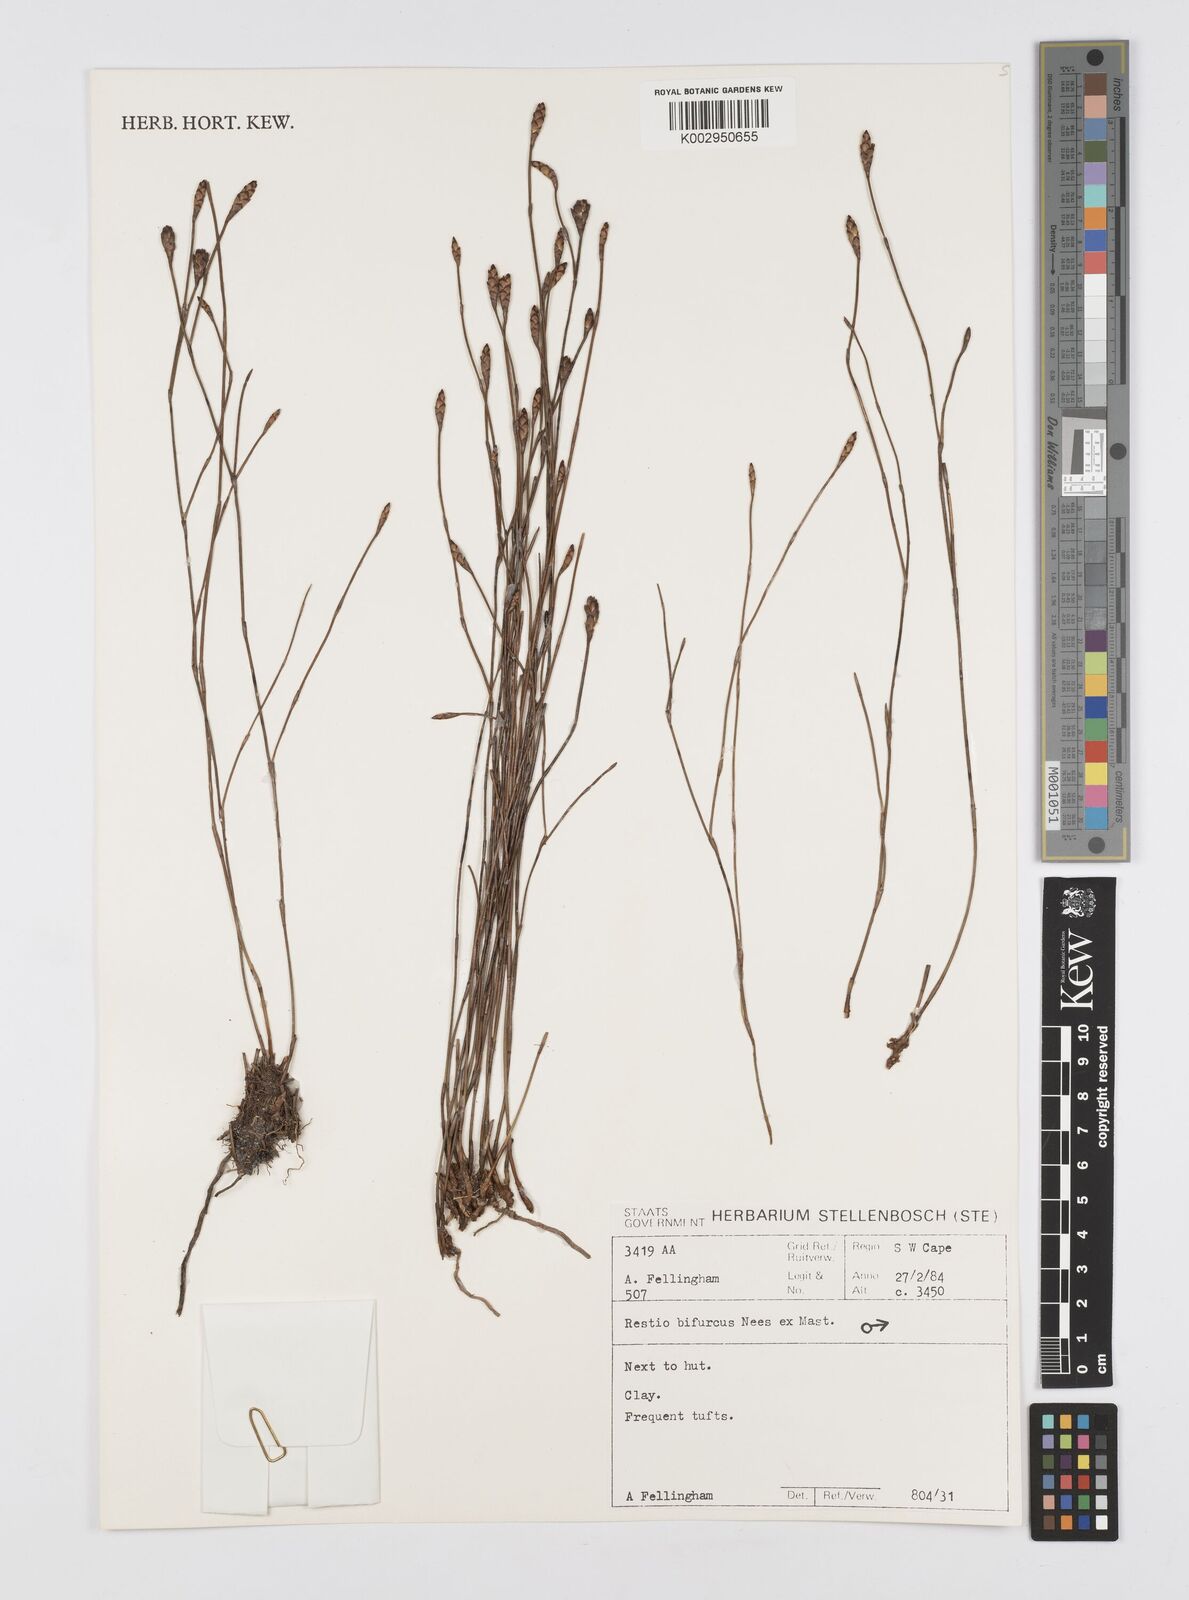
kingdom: Plantae
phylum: Tracheophyta
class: Liliopsida
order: Poales
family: Restionaceae
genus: Restio
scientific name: Restio bifurcus
